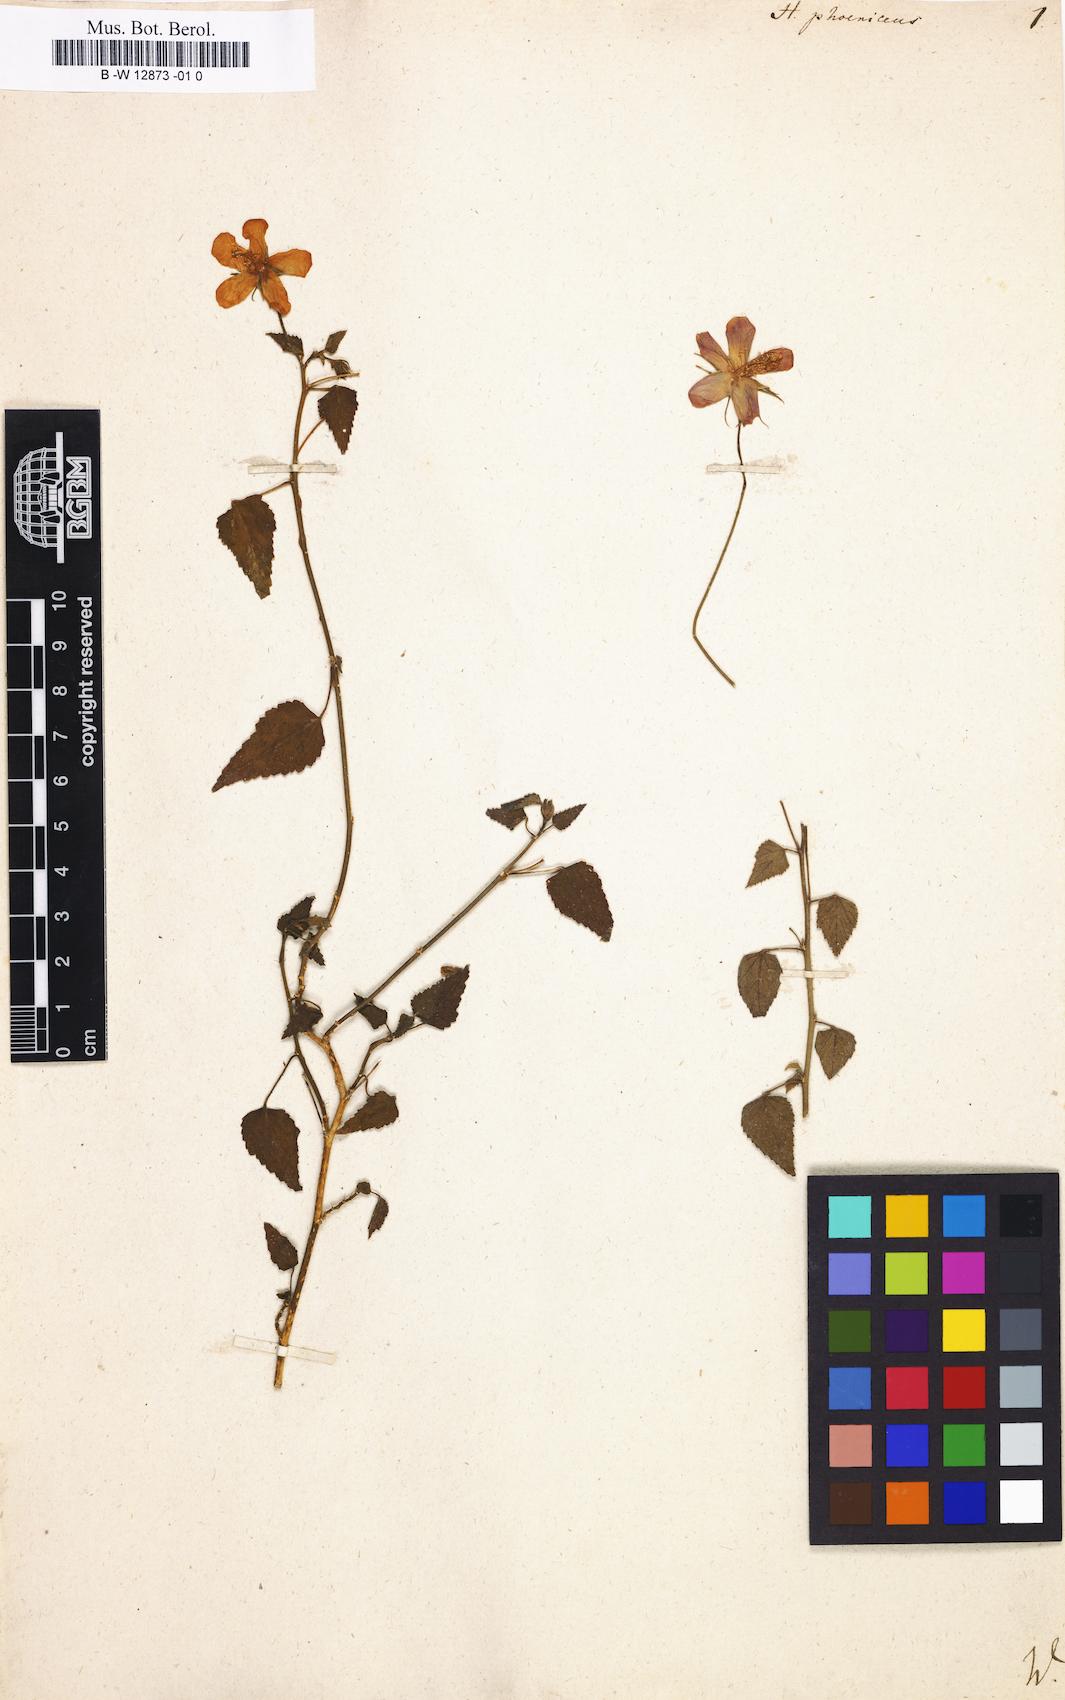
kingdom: Plantae
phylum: Tracheophyta
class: Magnoliopsida
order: Malvales
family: Malvaceae
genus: Hibiscus
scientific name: Hibiscus phoeniceus
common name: Brazilian rosemallow
